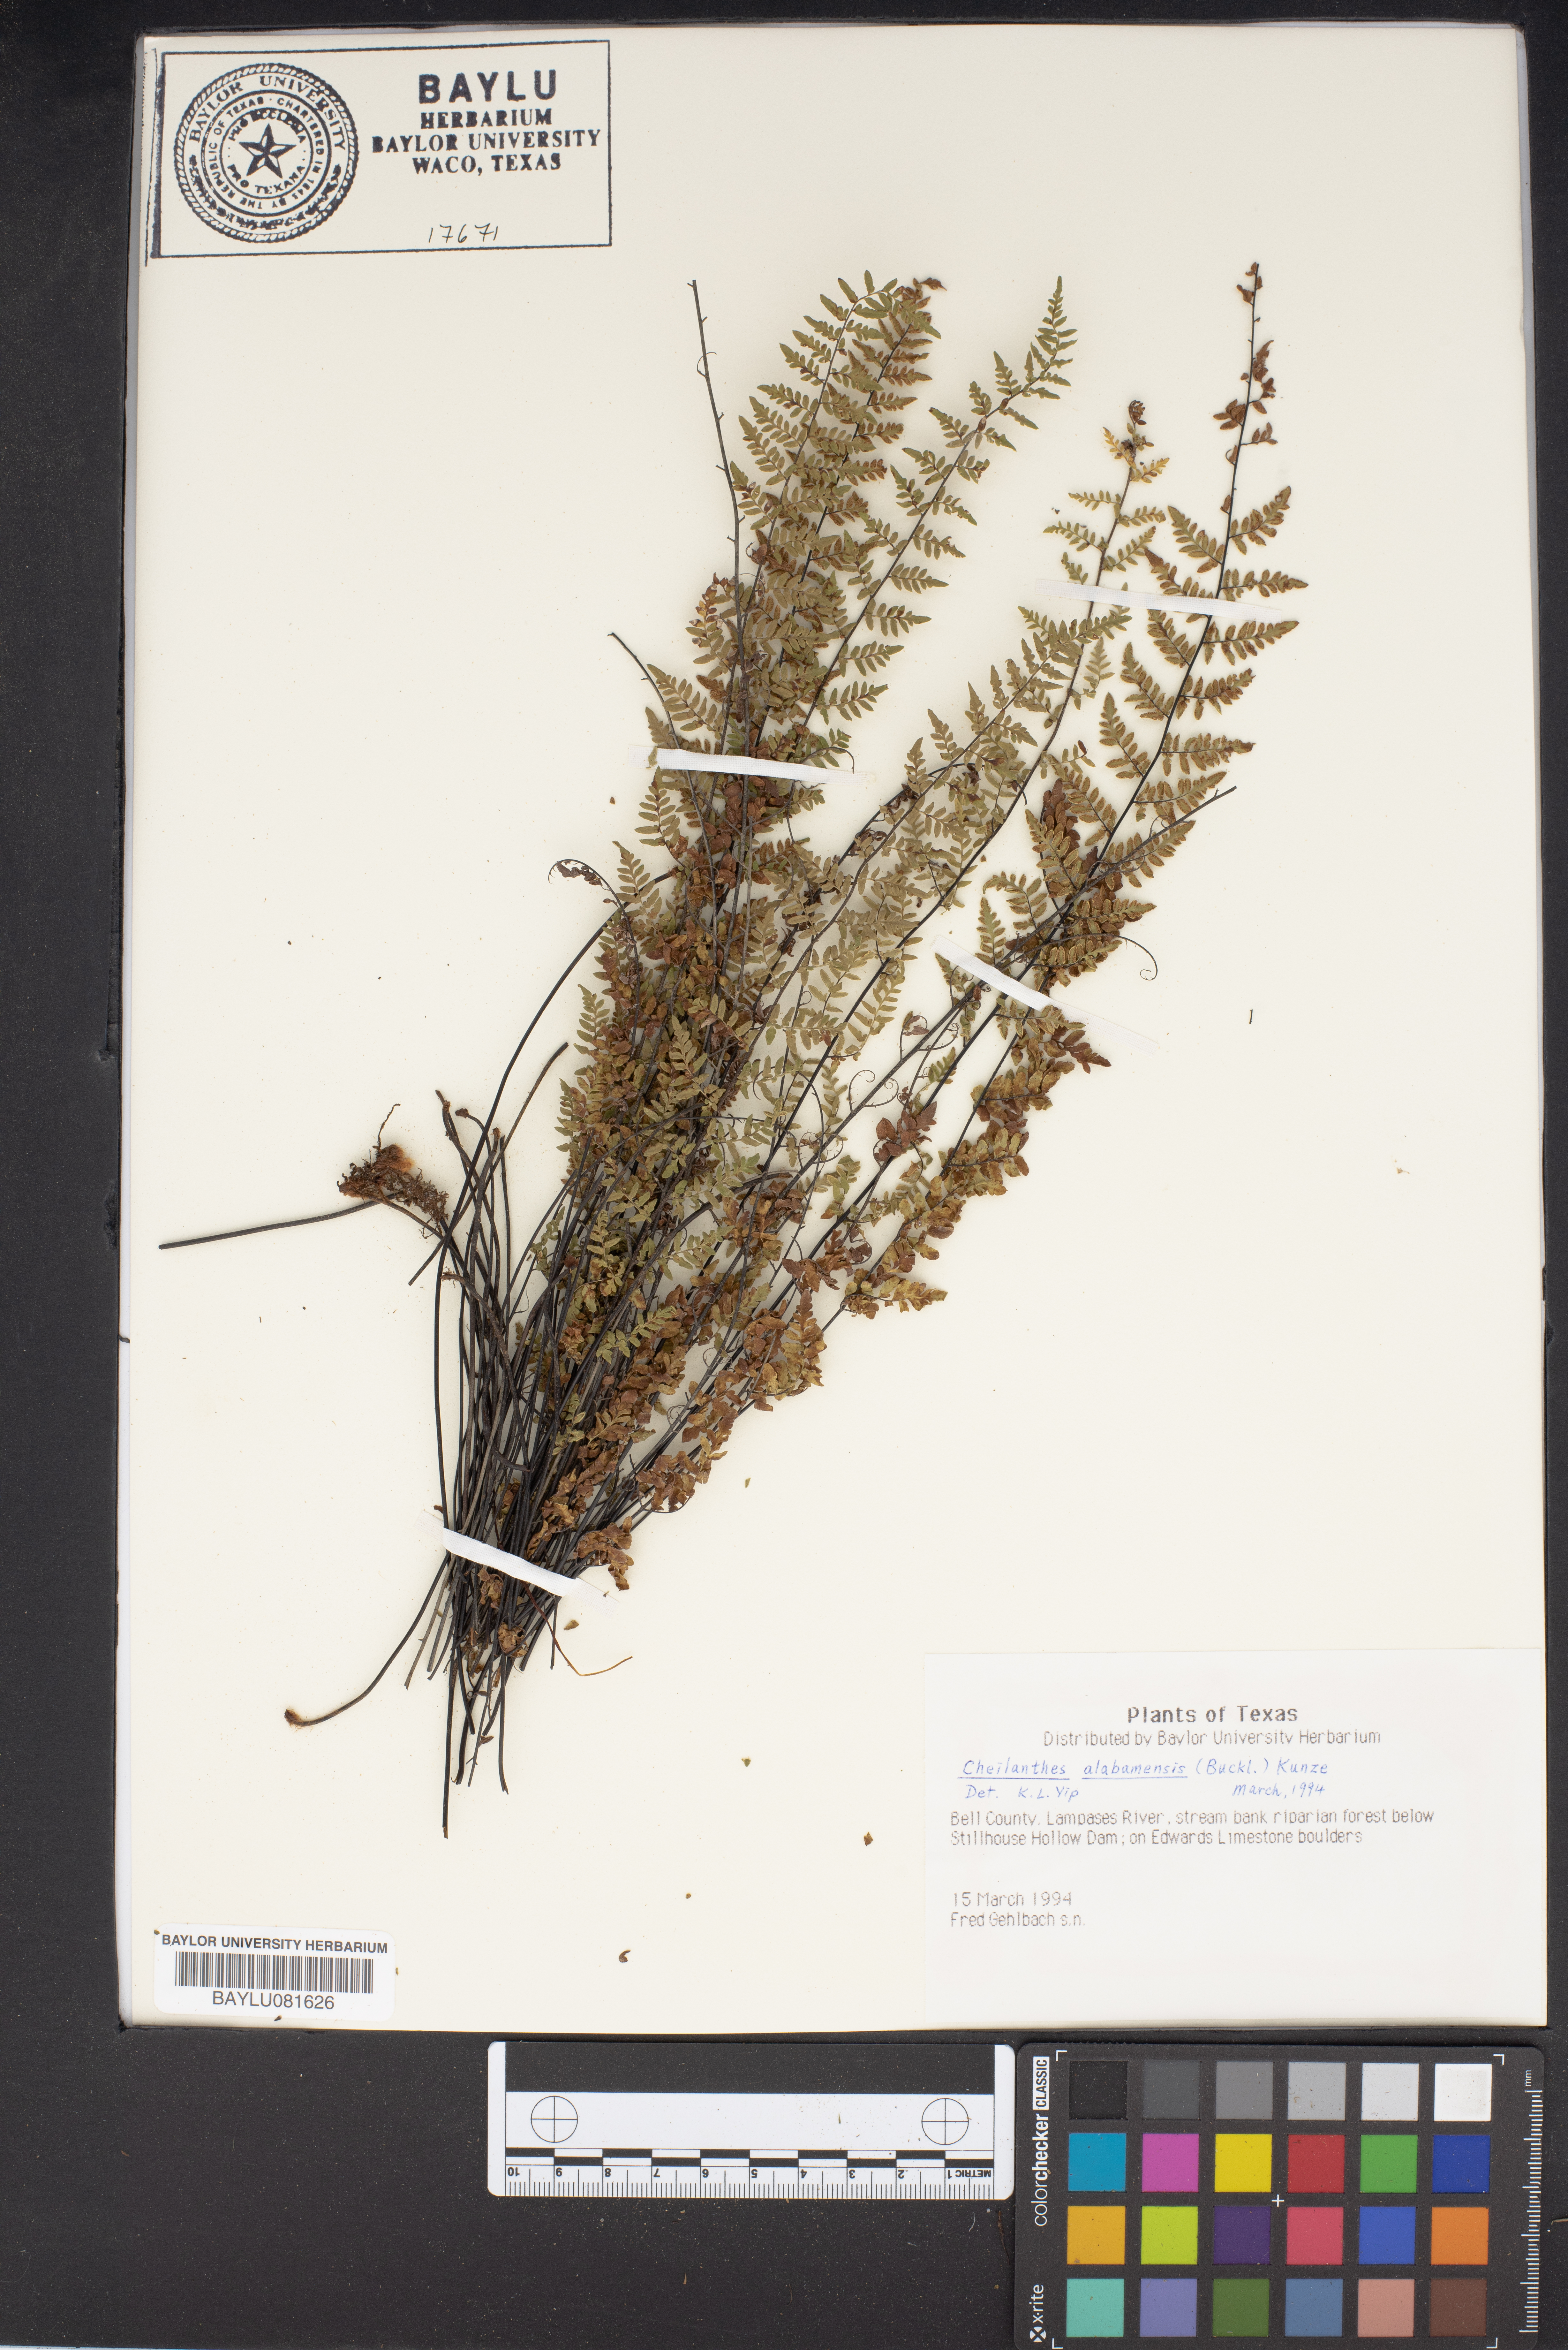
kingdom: Plantae
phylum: Tracheophyta
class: Polypodiopsida
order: Polypodiales
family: Pteridaceae
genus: Myriopteris
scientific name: Myriopteris alabamensis
